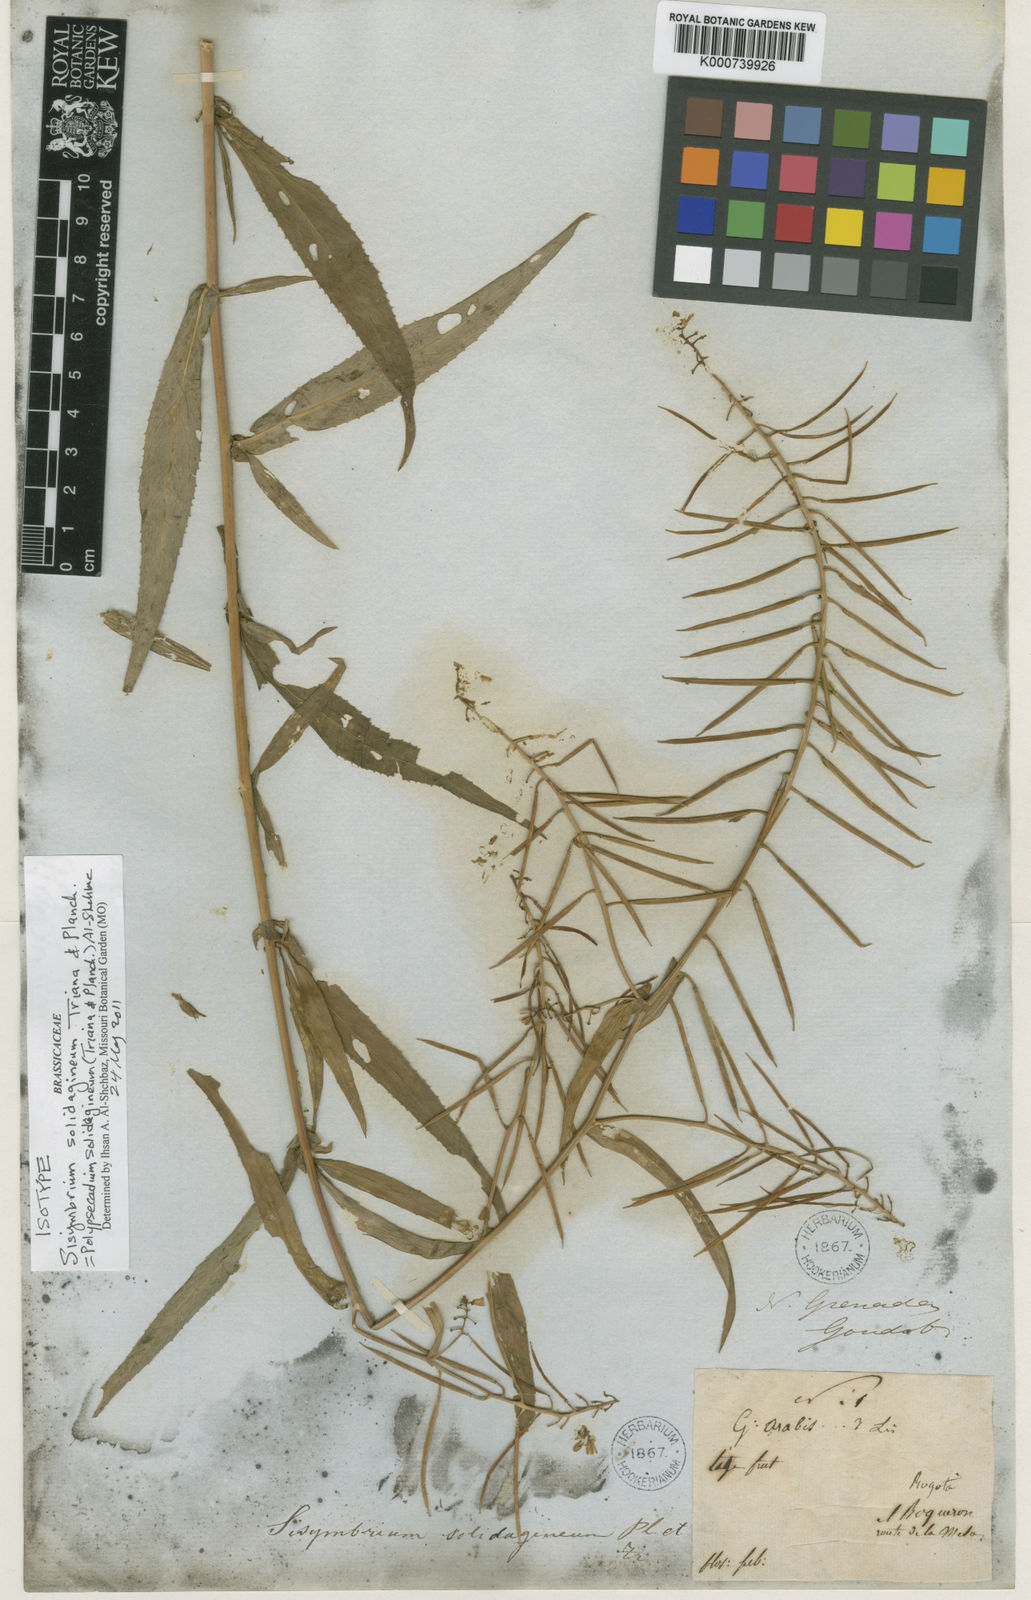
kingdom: Plantae
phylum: Tracheophyta
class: Magnoliopsida
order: Brassicales
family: Brassicaceae
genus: Polypsecadium
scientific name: Polypsecadium solidagineum
